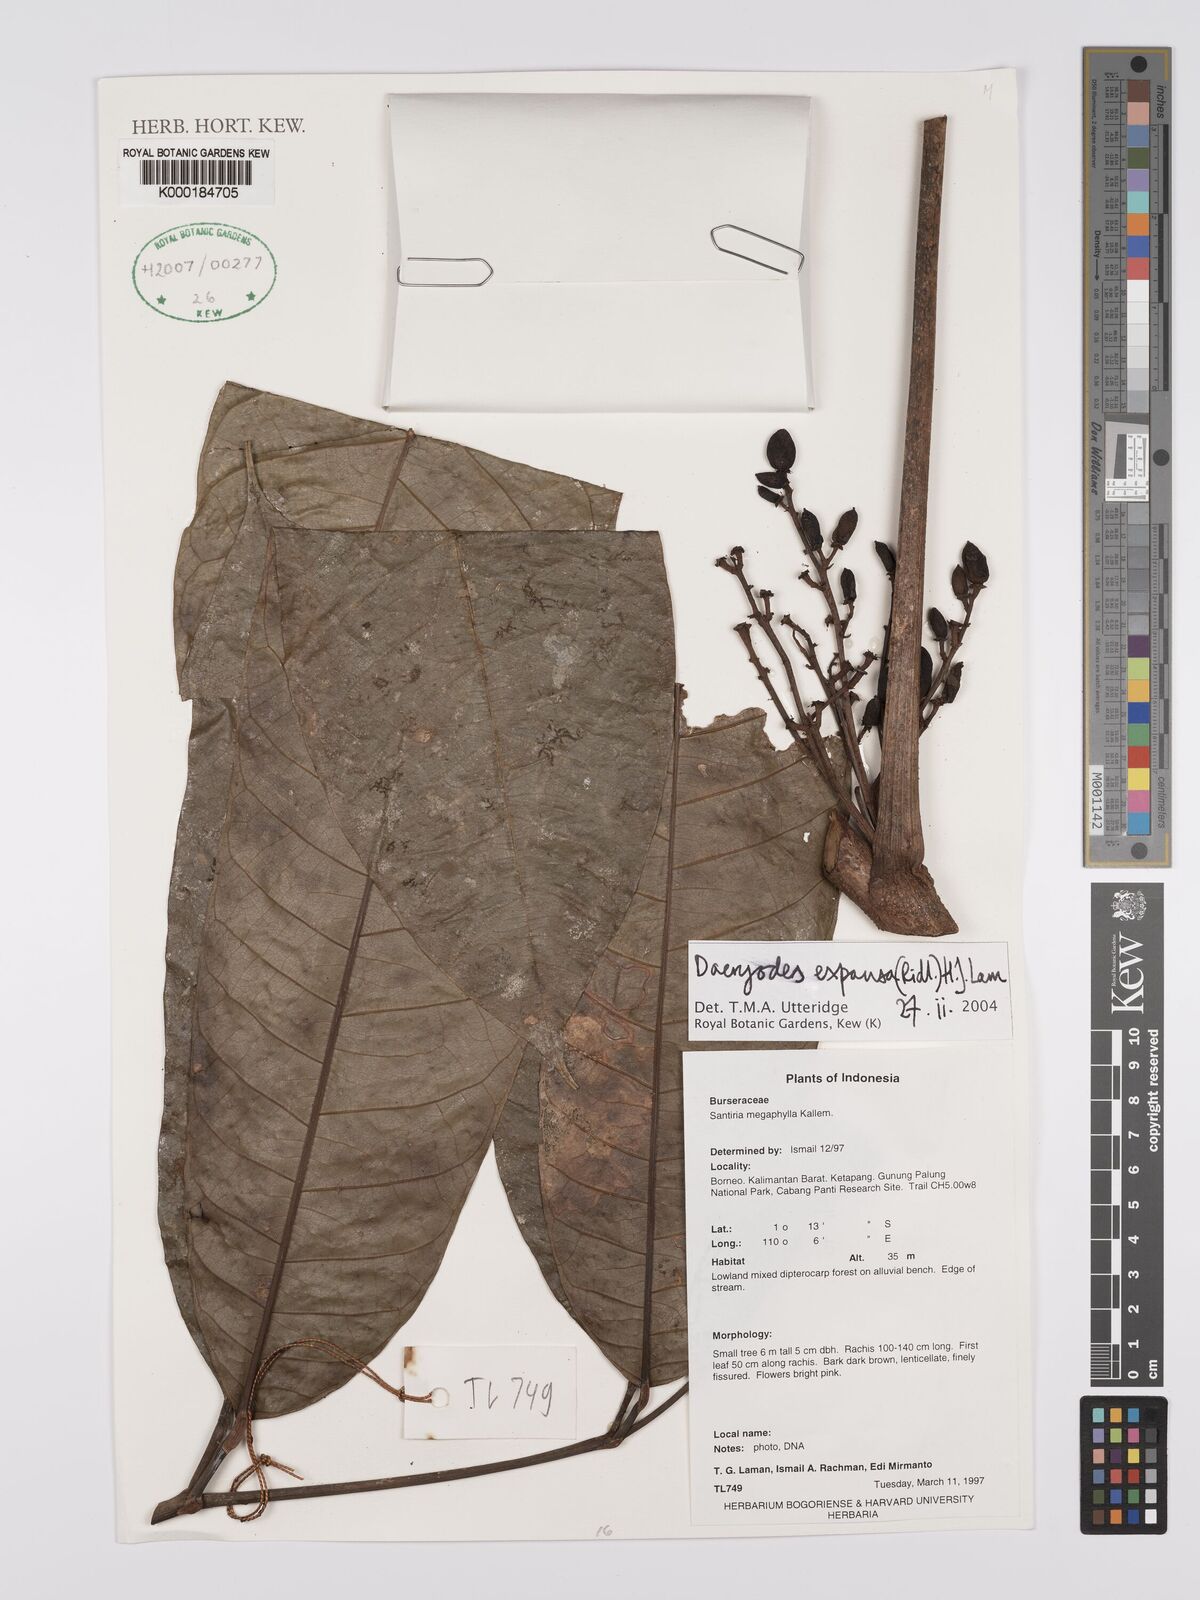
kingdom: Plantae
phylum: Tracheophyta
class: Magnoliopsida
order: Sapindales
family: Burseraceae
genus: Dacryodes
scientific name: Dacryodes expansa
